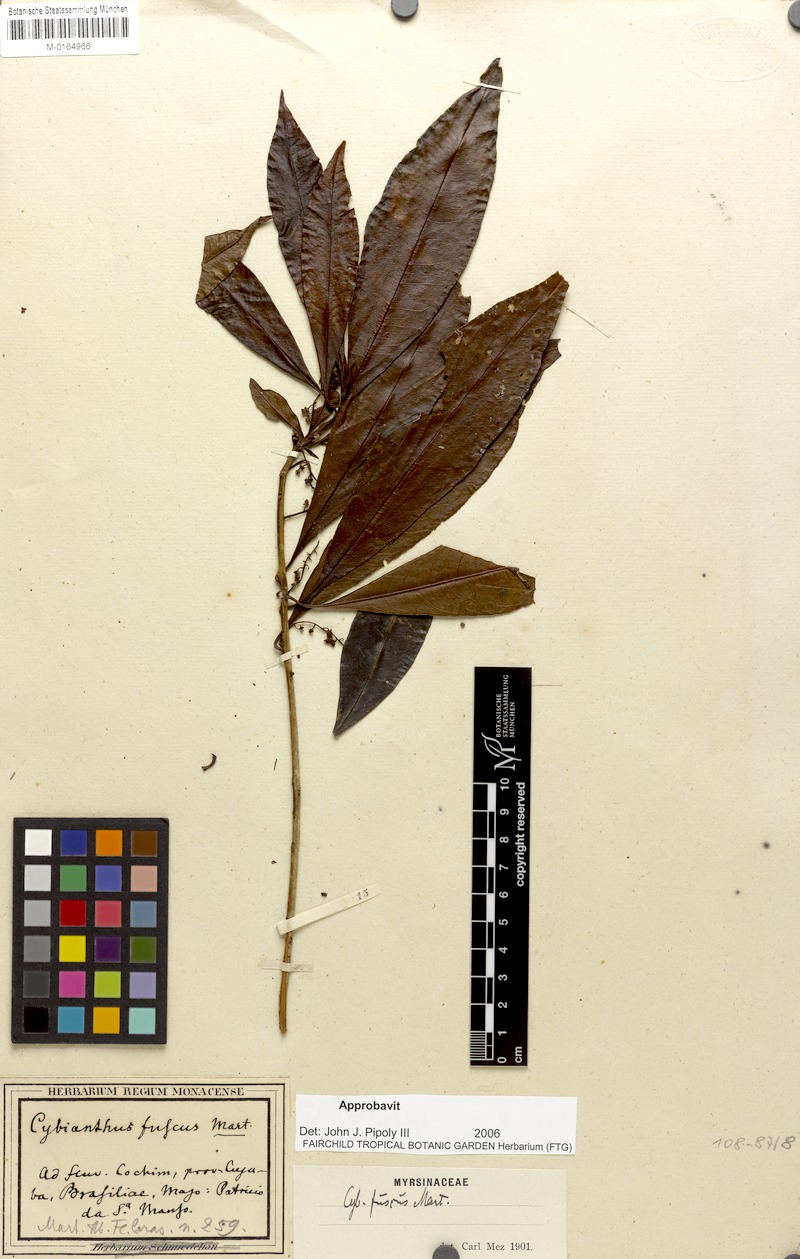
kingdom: Plantae
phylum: Tracheophyta
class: Magnoliopsida
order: Ericales
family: Primulaceae
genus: Cybianthus
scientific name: Cybianthus fuscus
